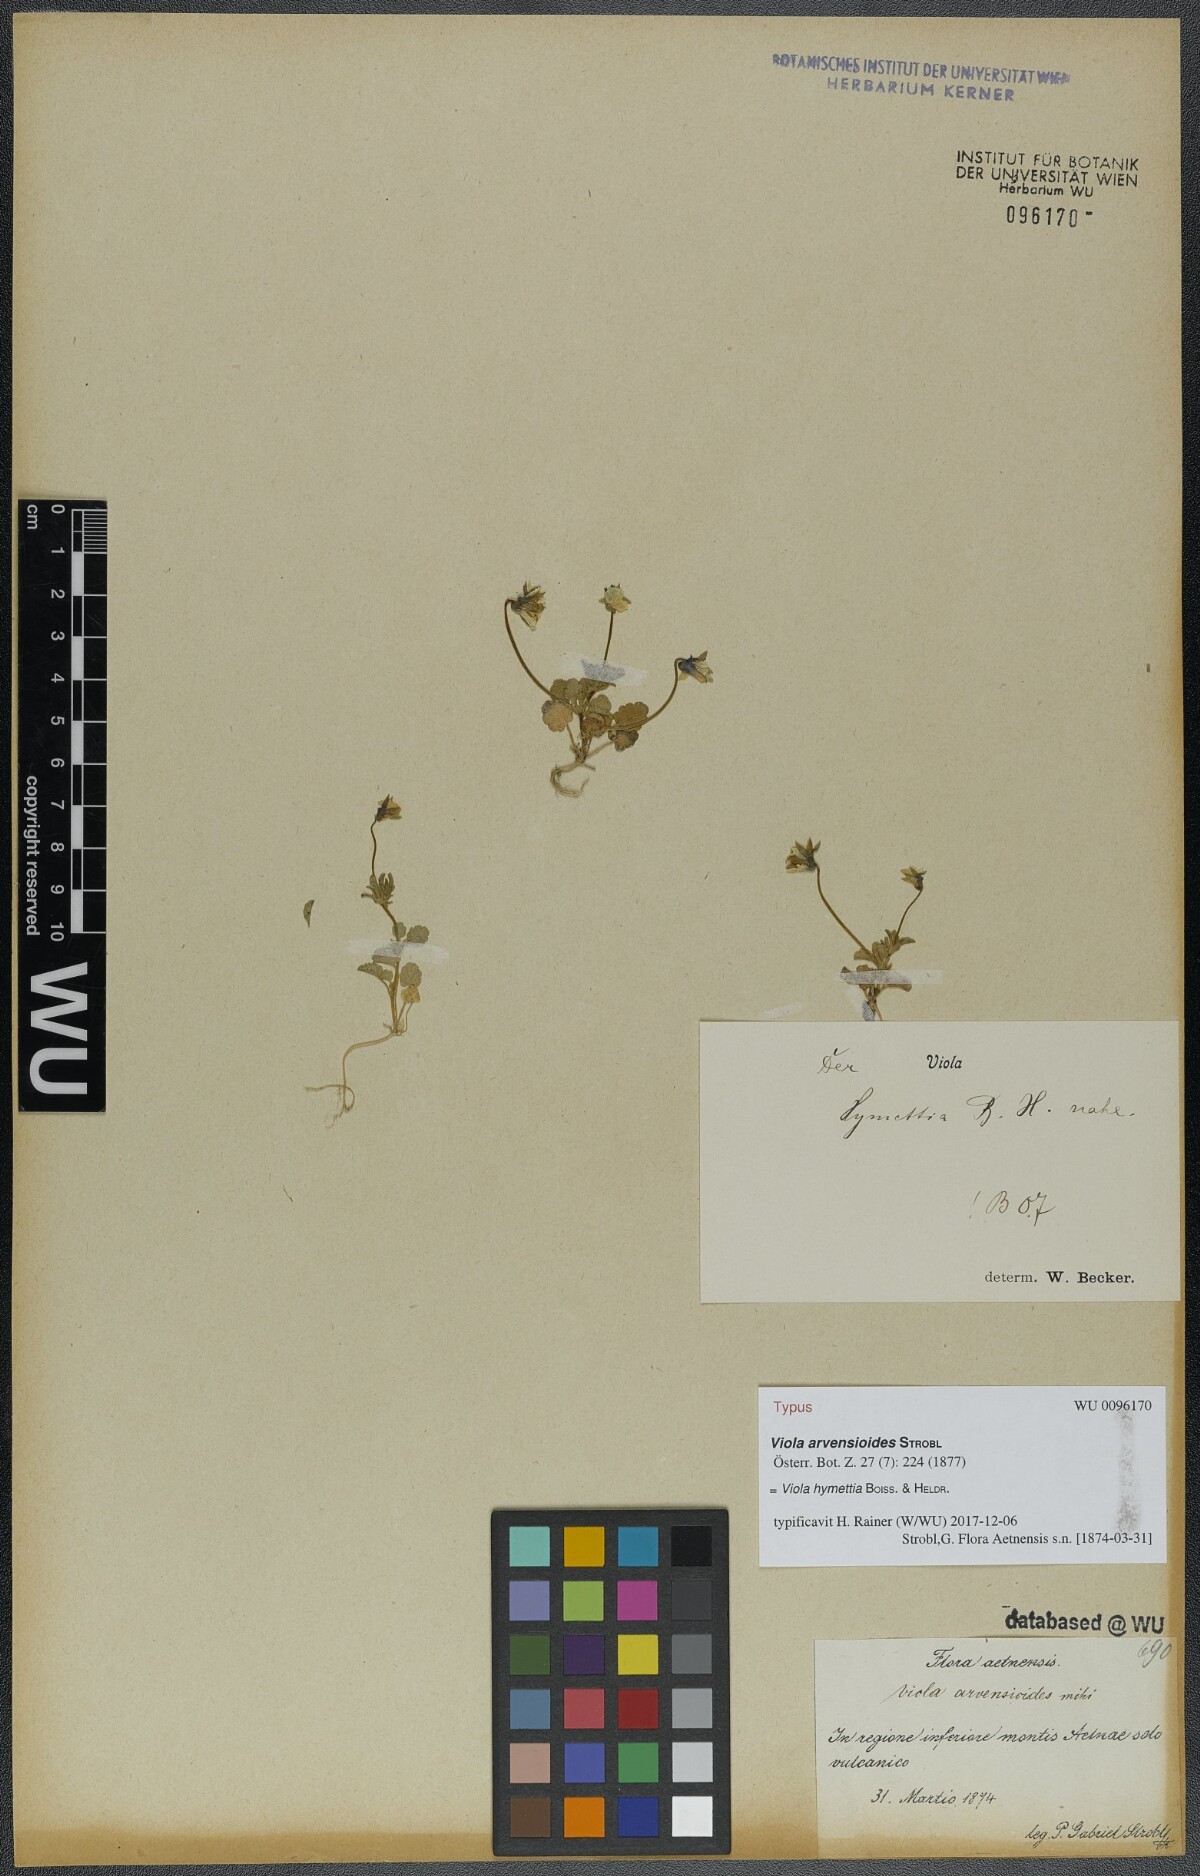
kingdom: Plantae
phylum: Tracheophyta
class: Magnoliopsida
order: Malpighiales
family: Violaceae
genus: Viola
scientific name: Viola hymettia
